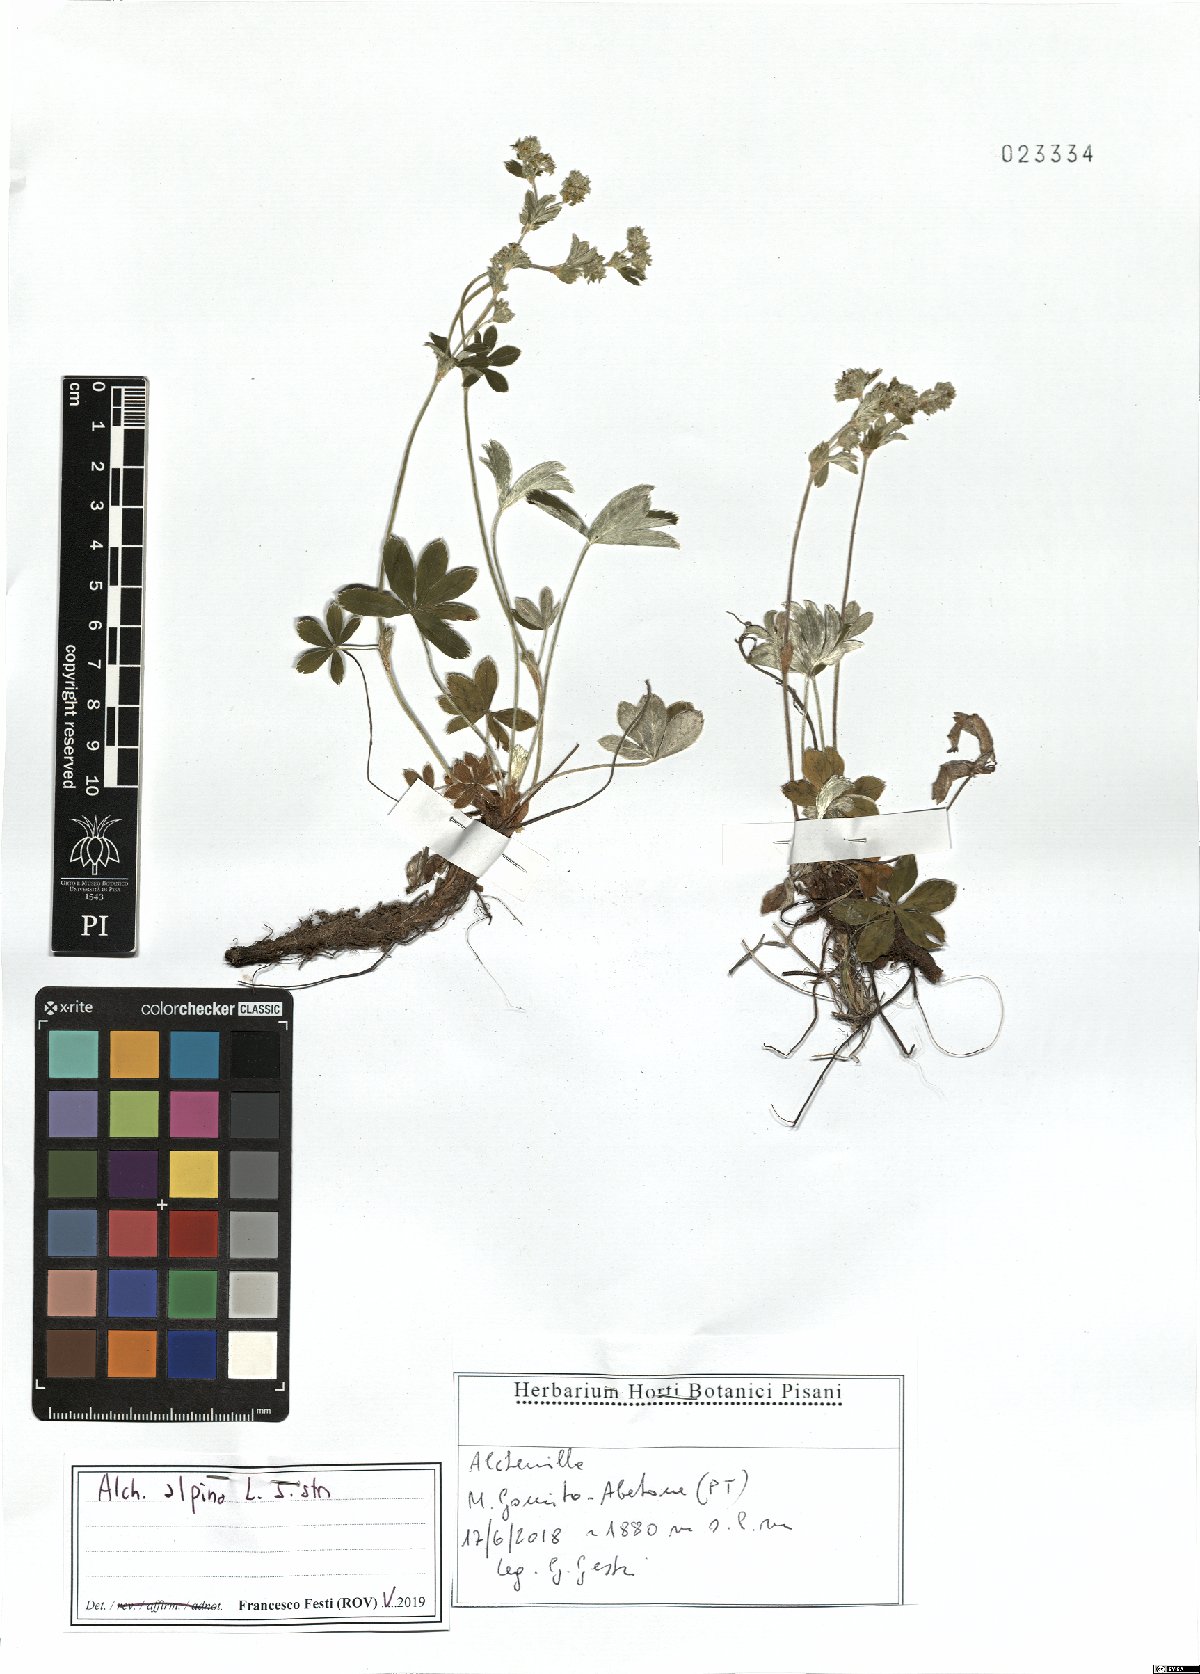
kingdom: Plantae
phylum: Tracheophyta
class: Magnoliopsida
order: Rosales
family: Rosaceae
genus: Alchemilla
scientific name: Alchemilla alpina
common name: Alpine lady's-mantle
